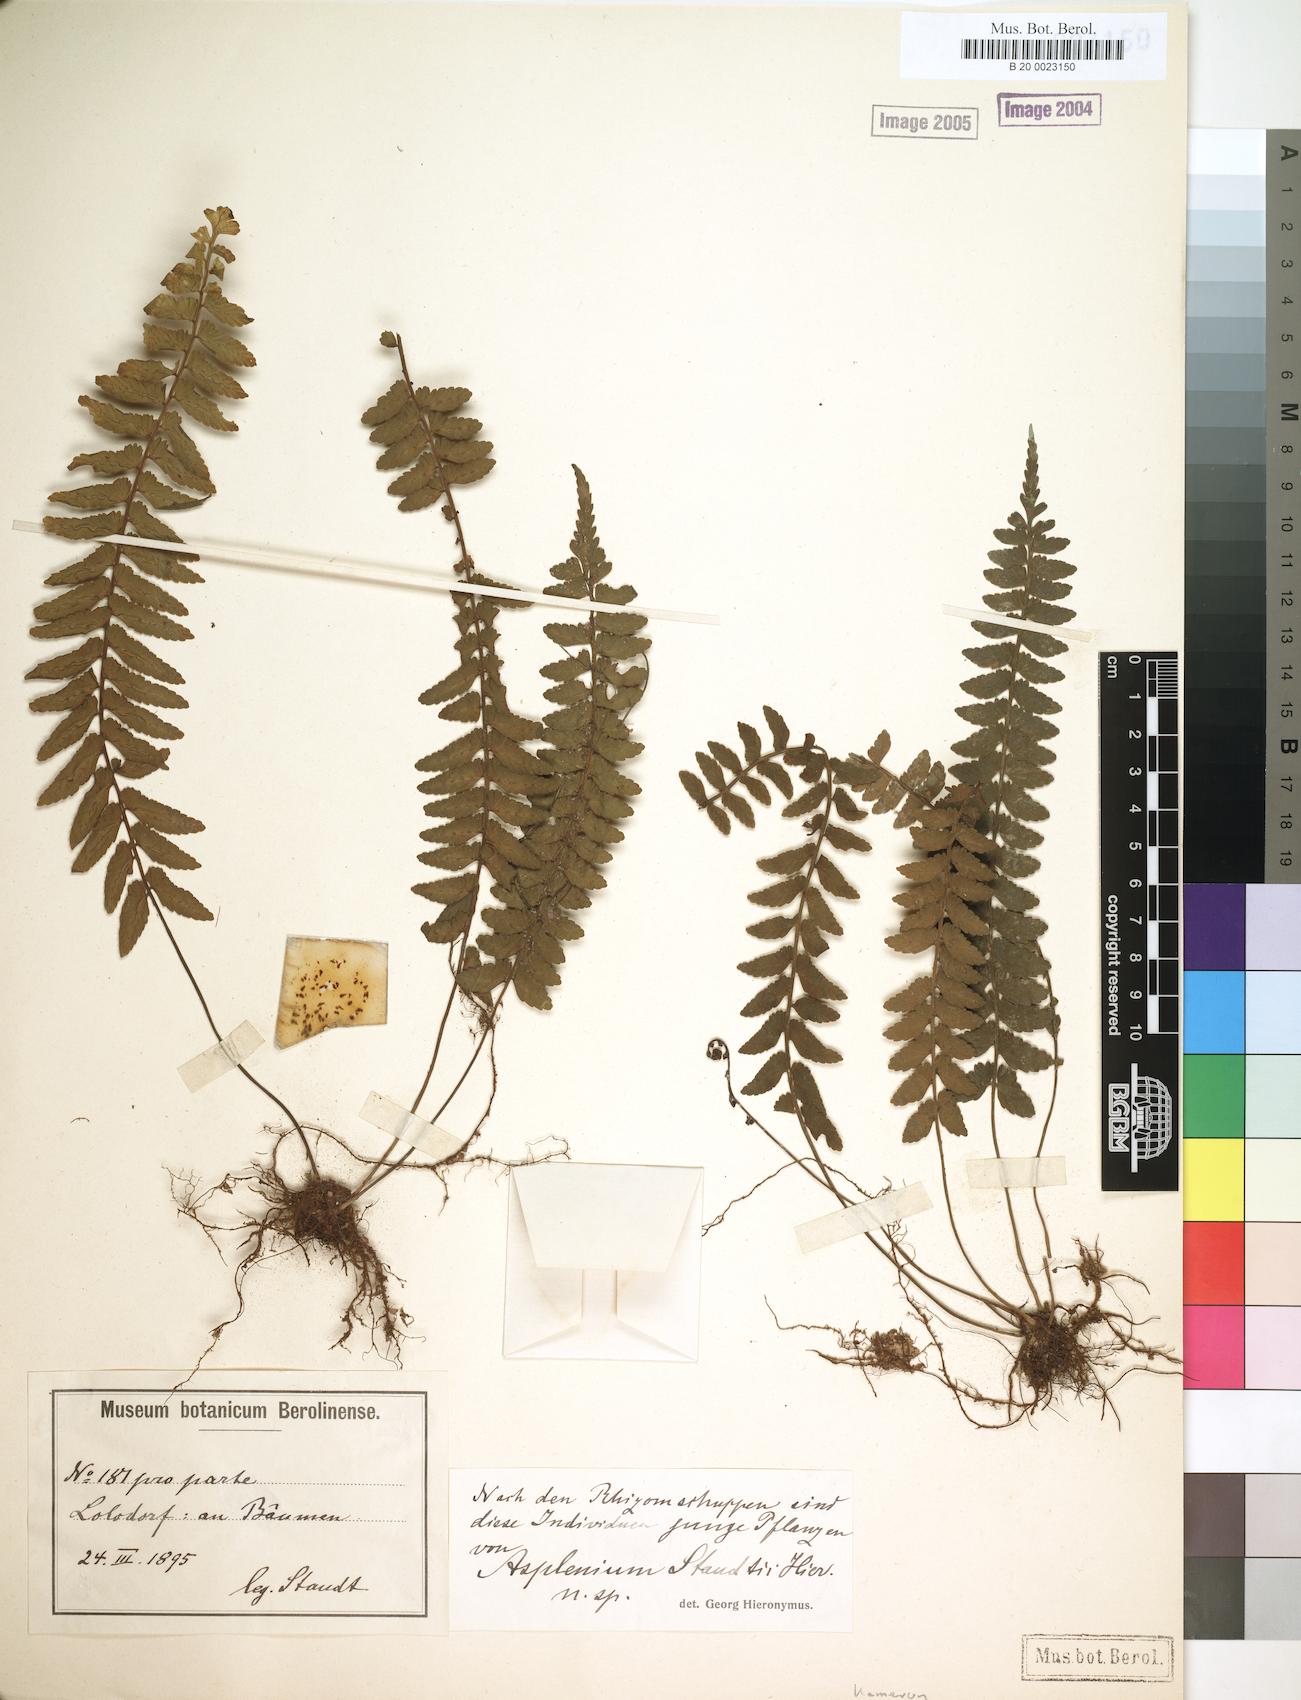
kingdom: Plantae
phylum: Tracheophyta
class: Polypodiopsida
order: Polypodiales
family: Aspleniaceae
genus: Asplenium
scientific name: Asplenium staudtii
